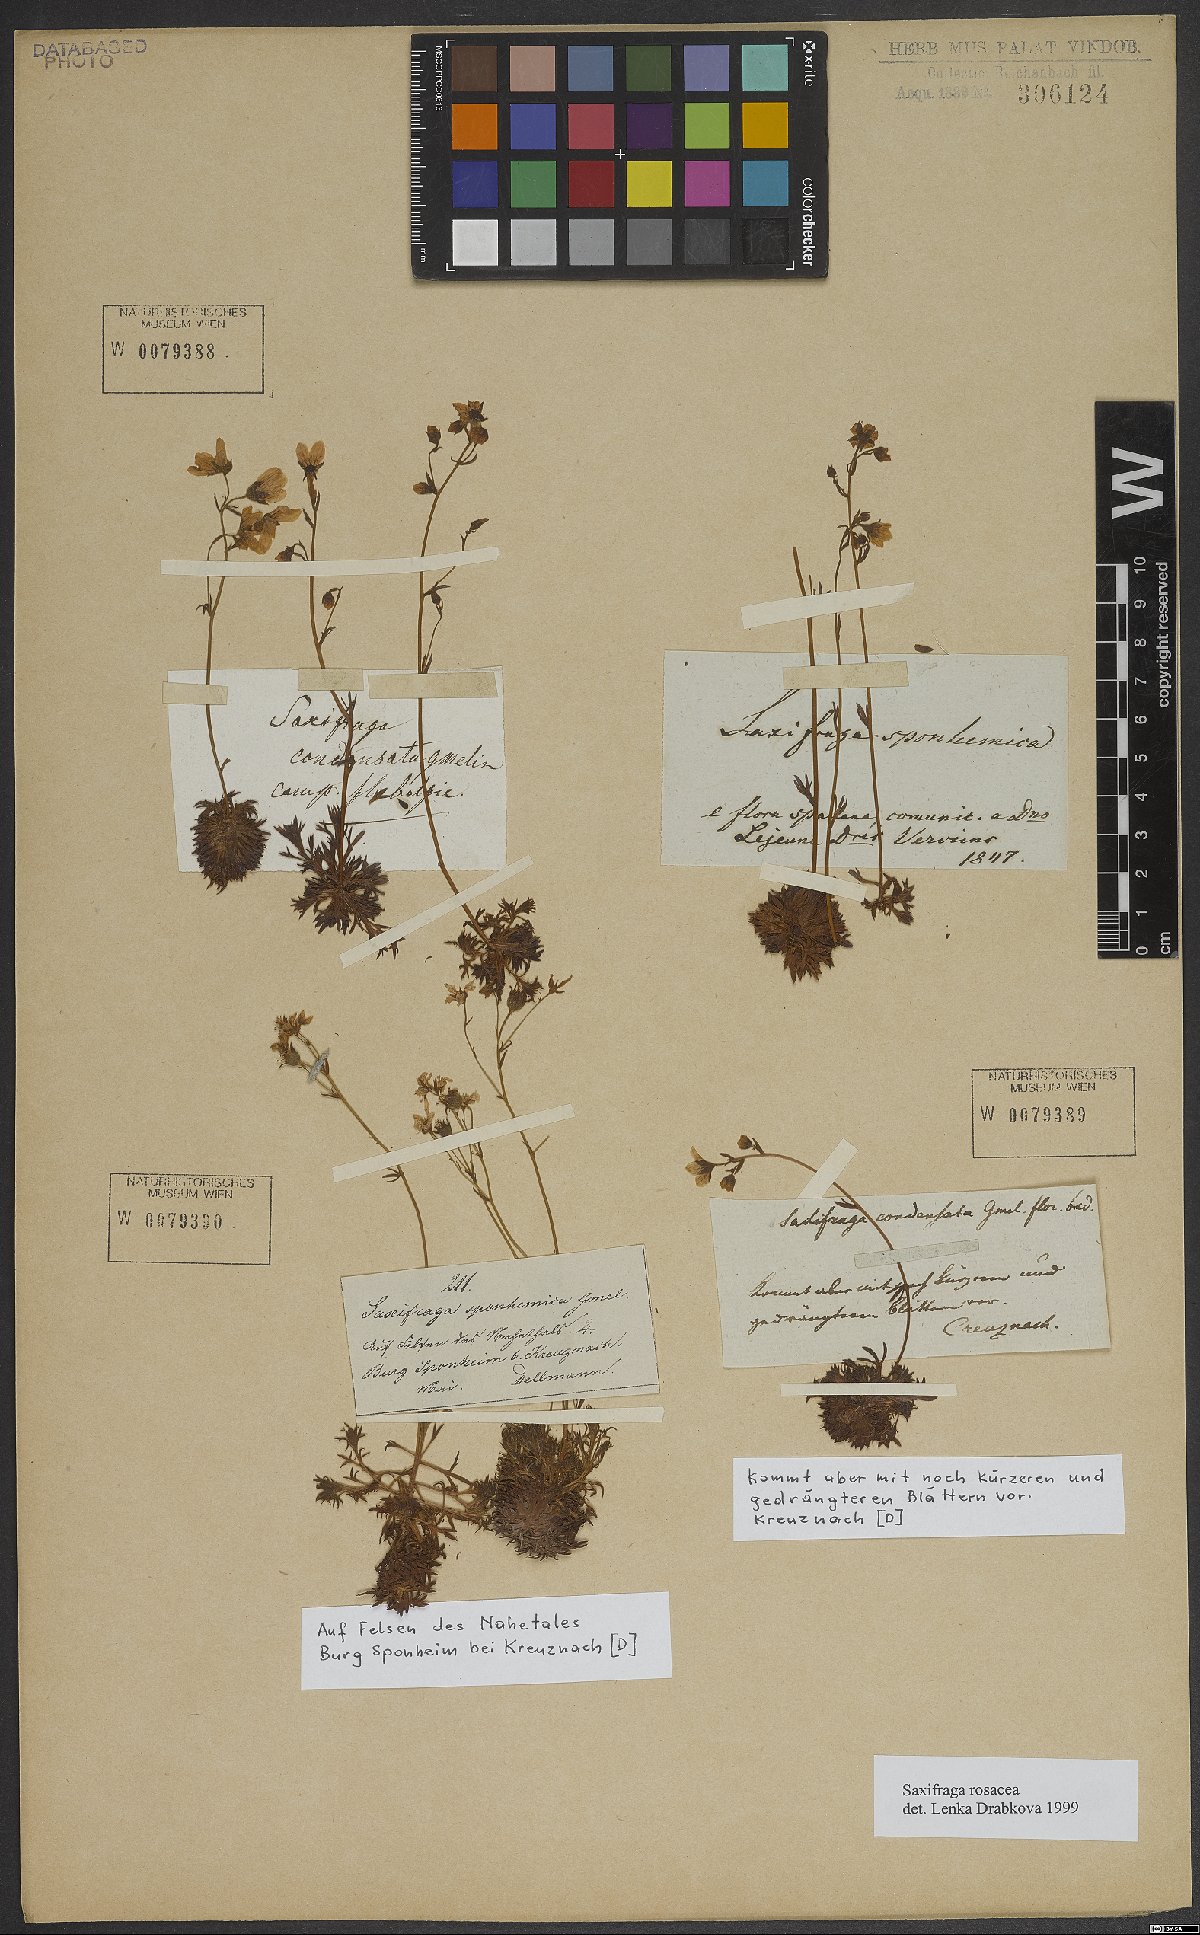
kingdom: Plantae
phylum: Tracheophyta
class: Magnoliopsida
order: Saxifragales
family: Saxifragaceae
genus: Saxifraga
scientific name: Saxifraga rosacea
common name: Irish saxifrage
